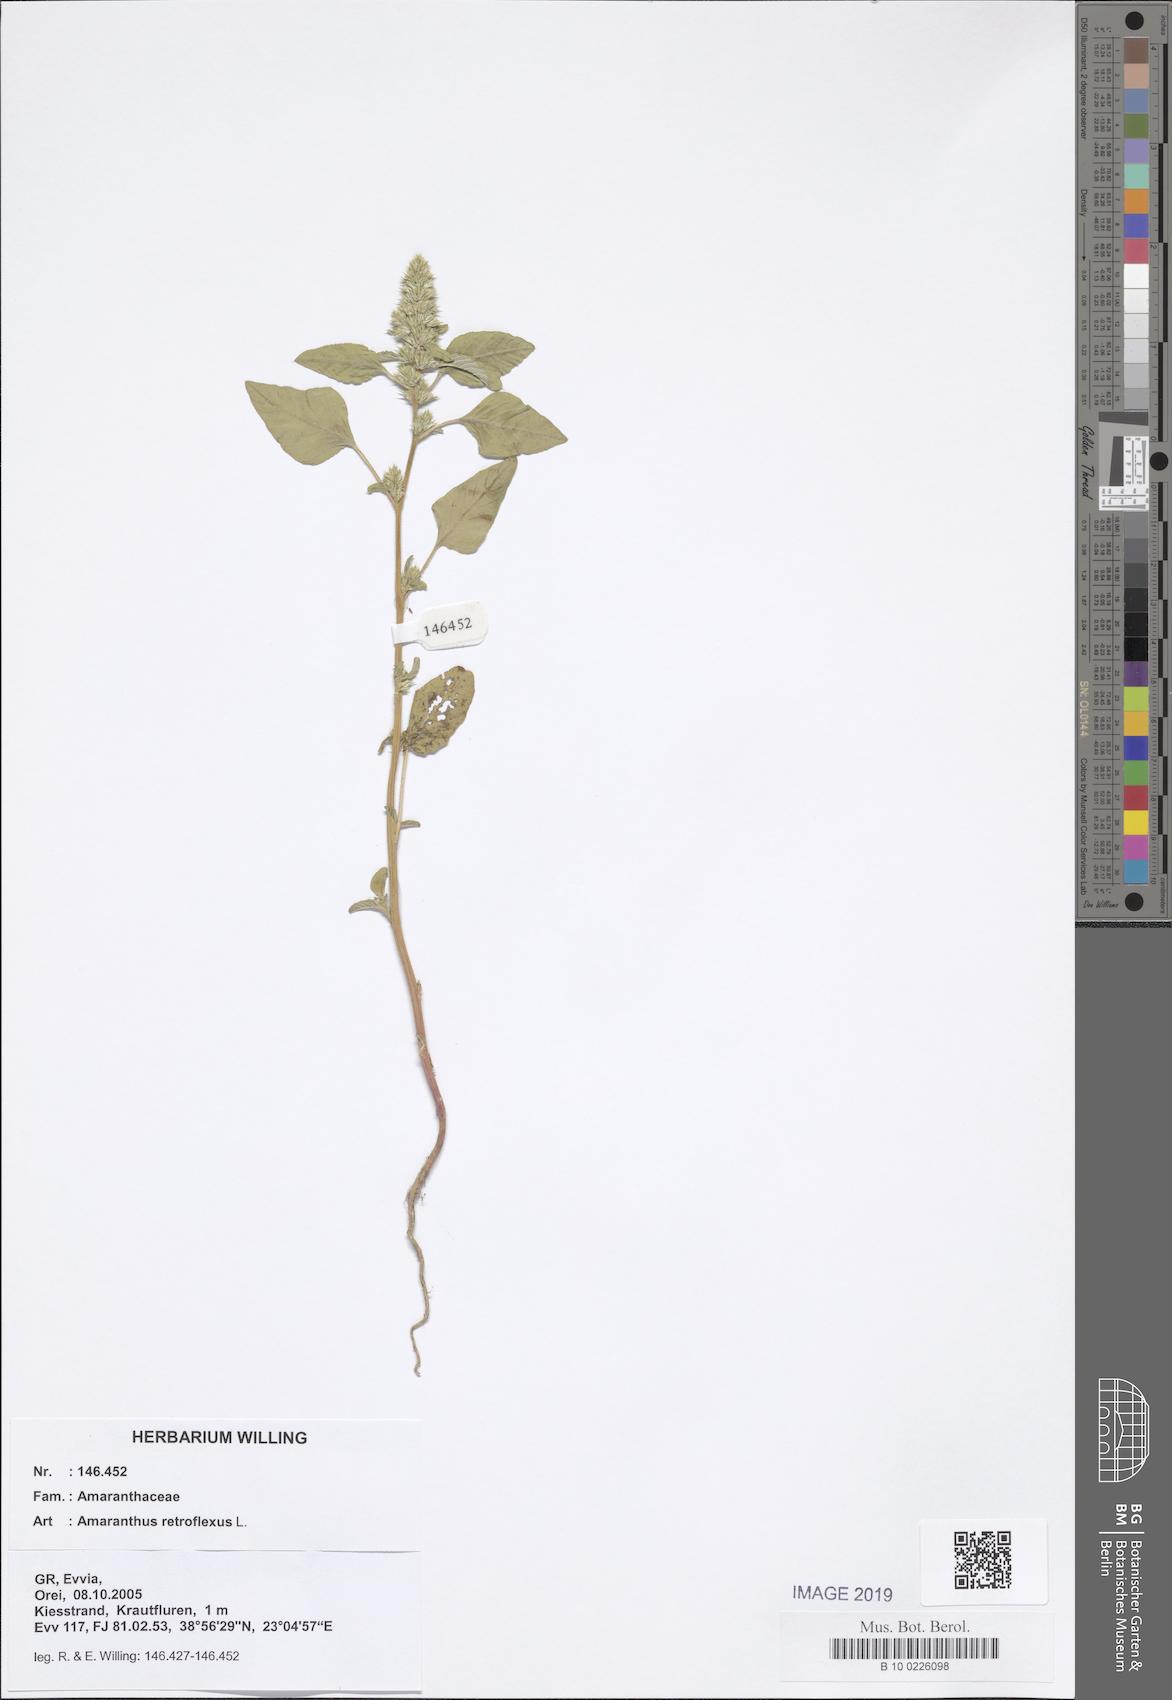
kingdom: Plantae
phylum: Tracheophyta
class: Magnoliopsida
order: Caryophyllales
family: Amaranthaceae
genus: Amaranthus
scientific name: Amaranthus retroflexus
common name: Redroot amaranth
